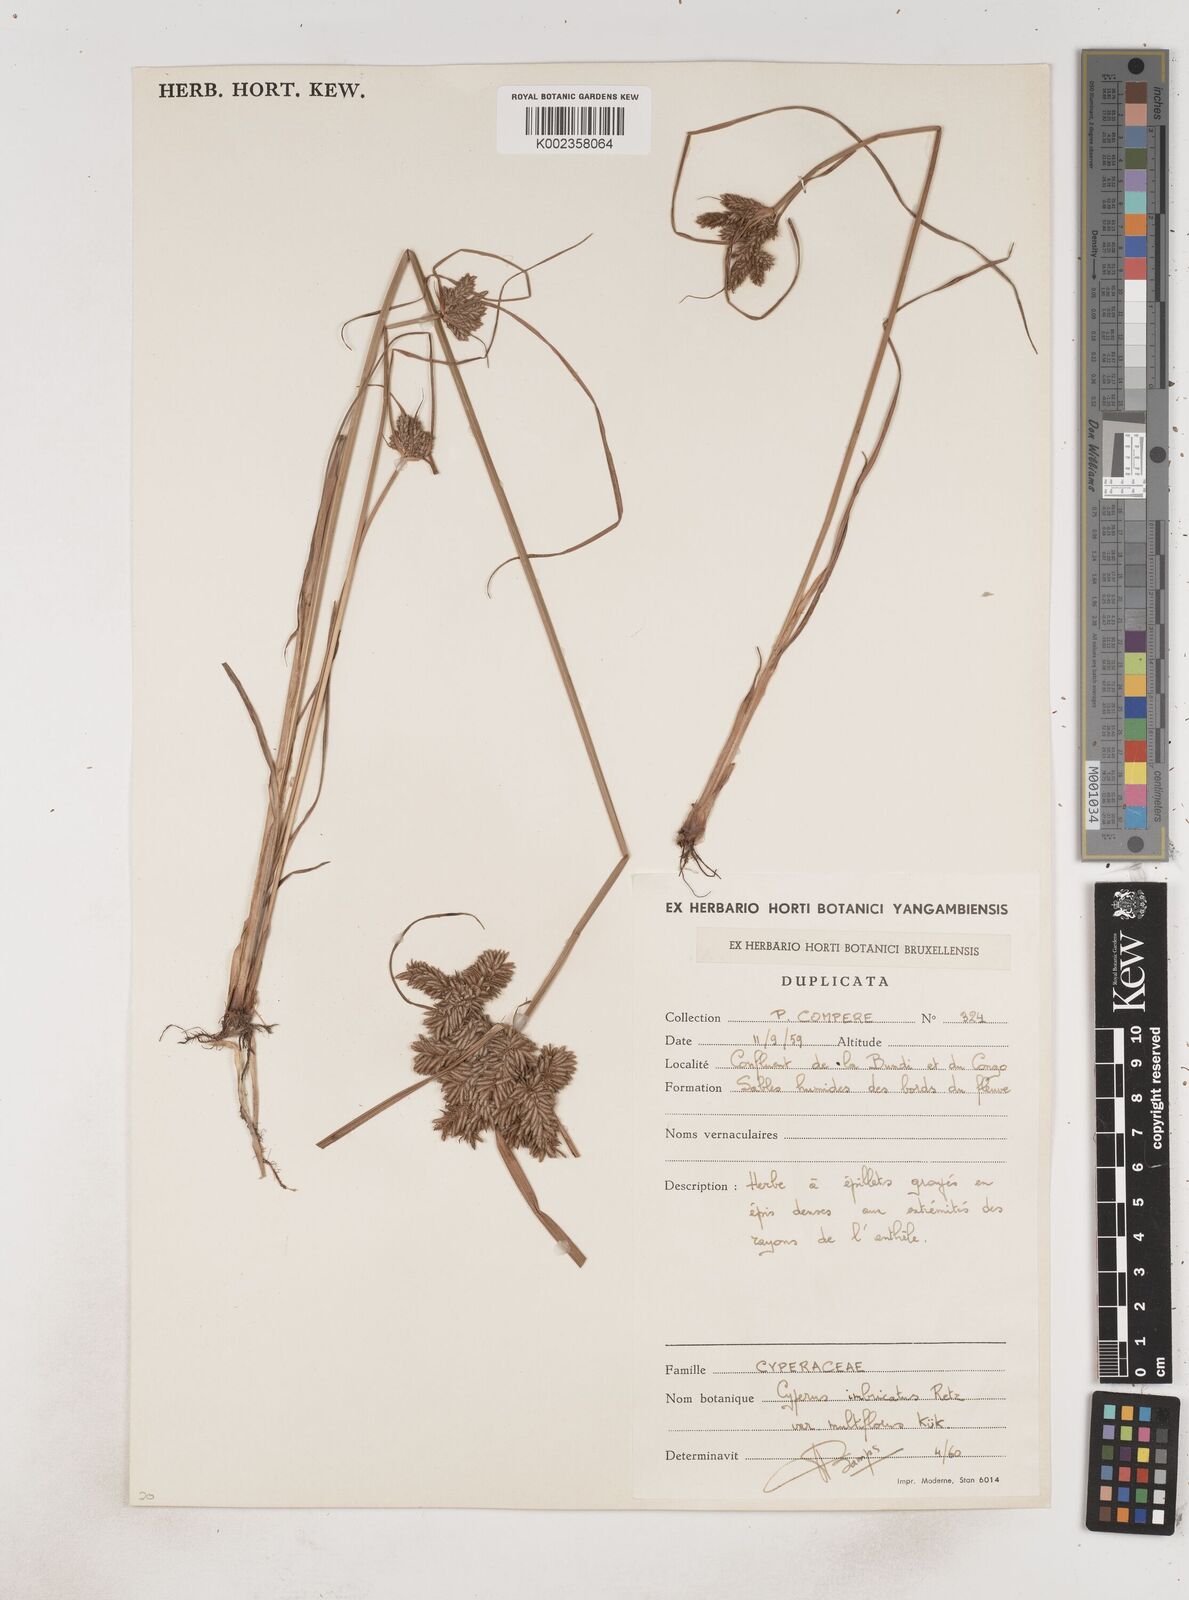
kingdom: Plantae
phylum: Tracheophyta
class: Liliopsida
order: Poales
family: Cyperaceae
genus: Cyperus
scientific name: Cyperus imbricatus
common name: Shingle flatsedge
